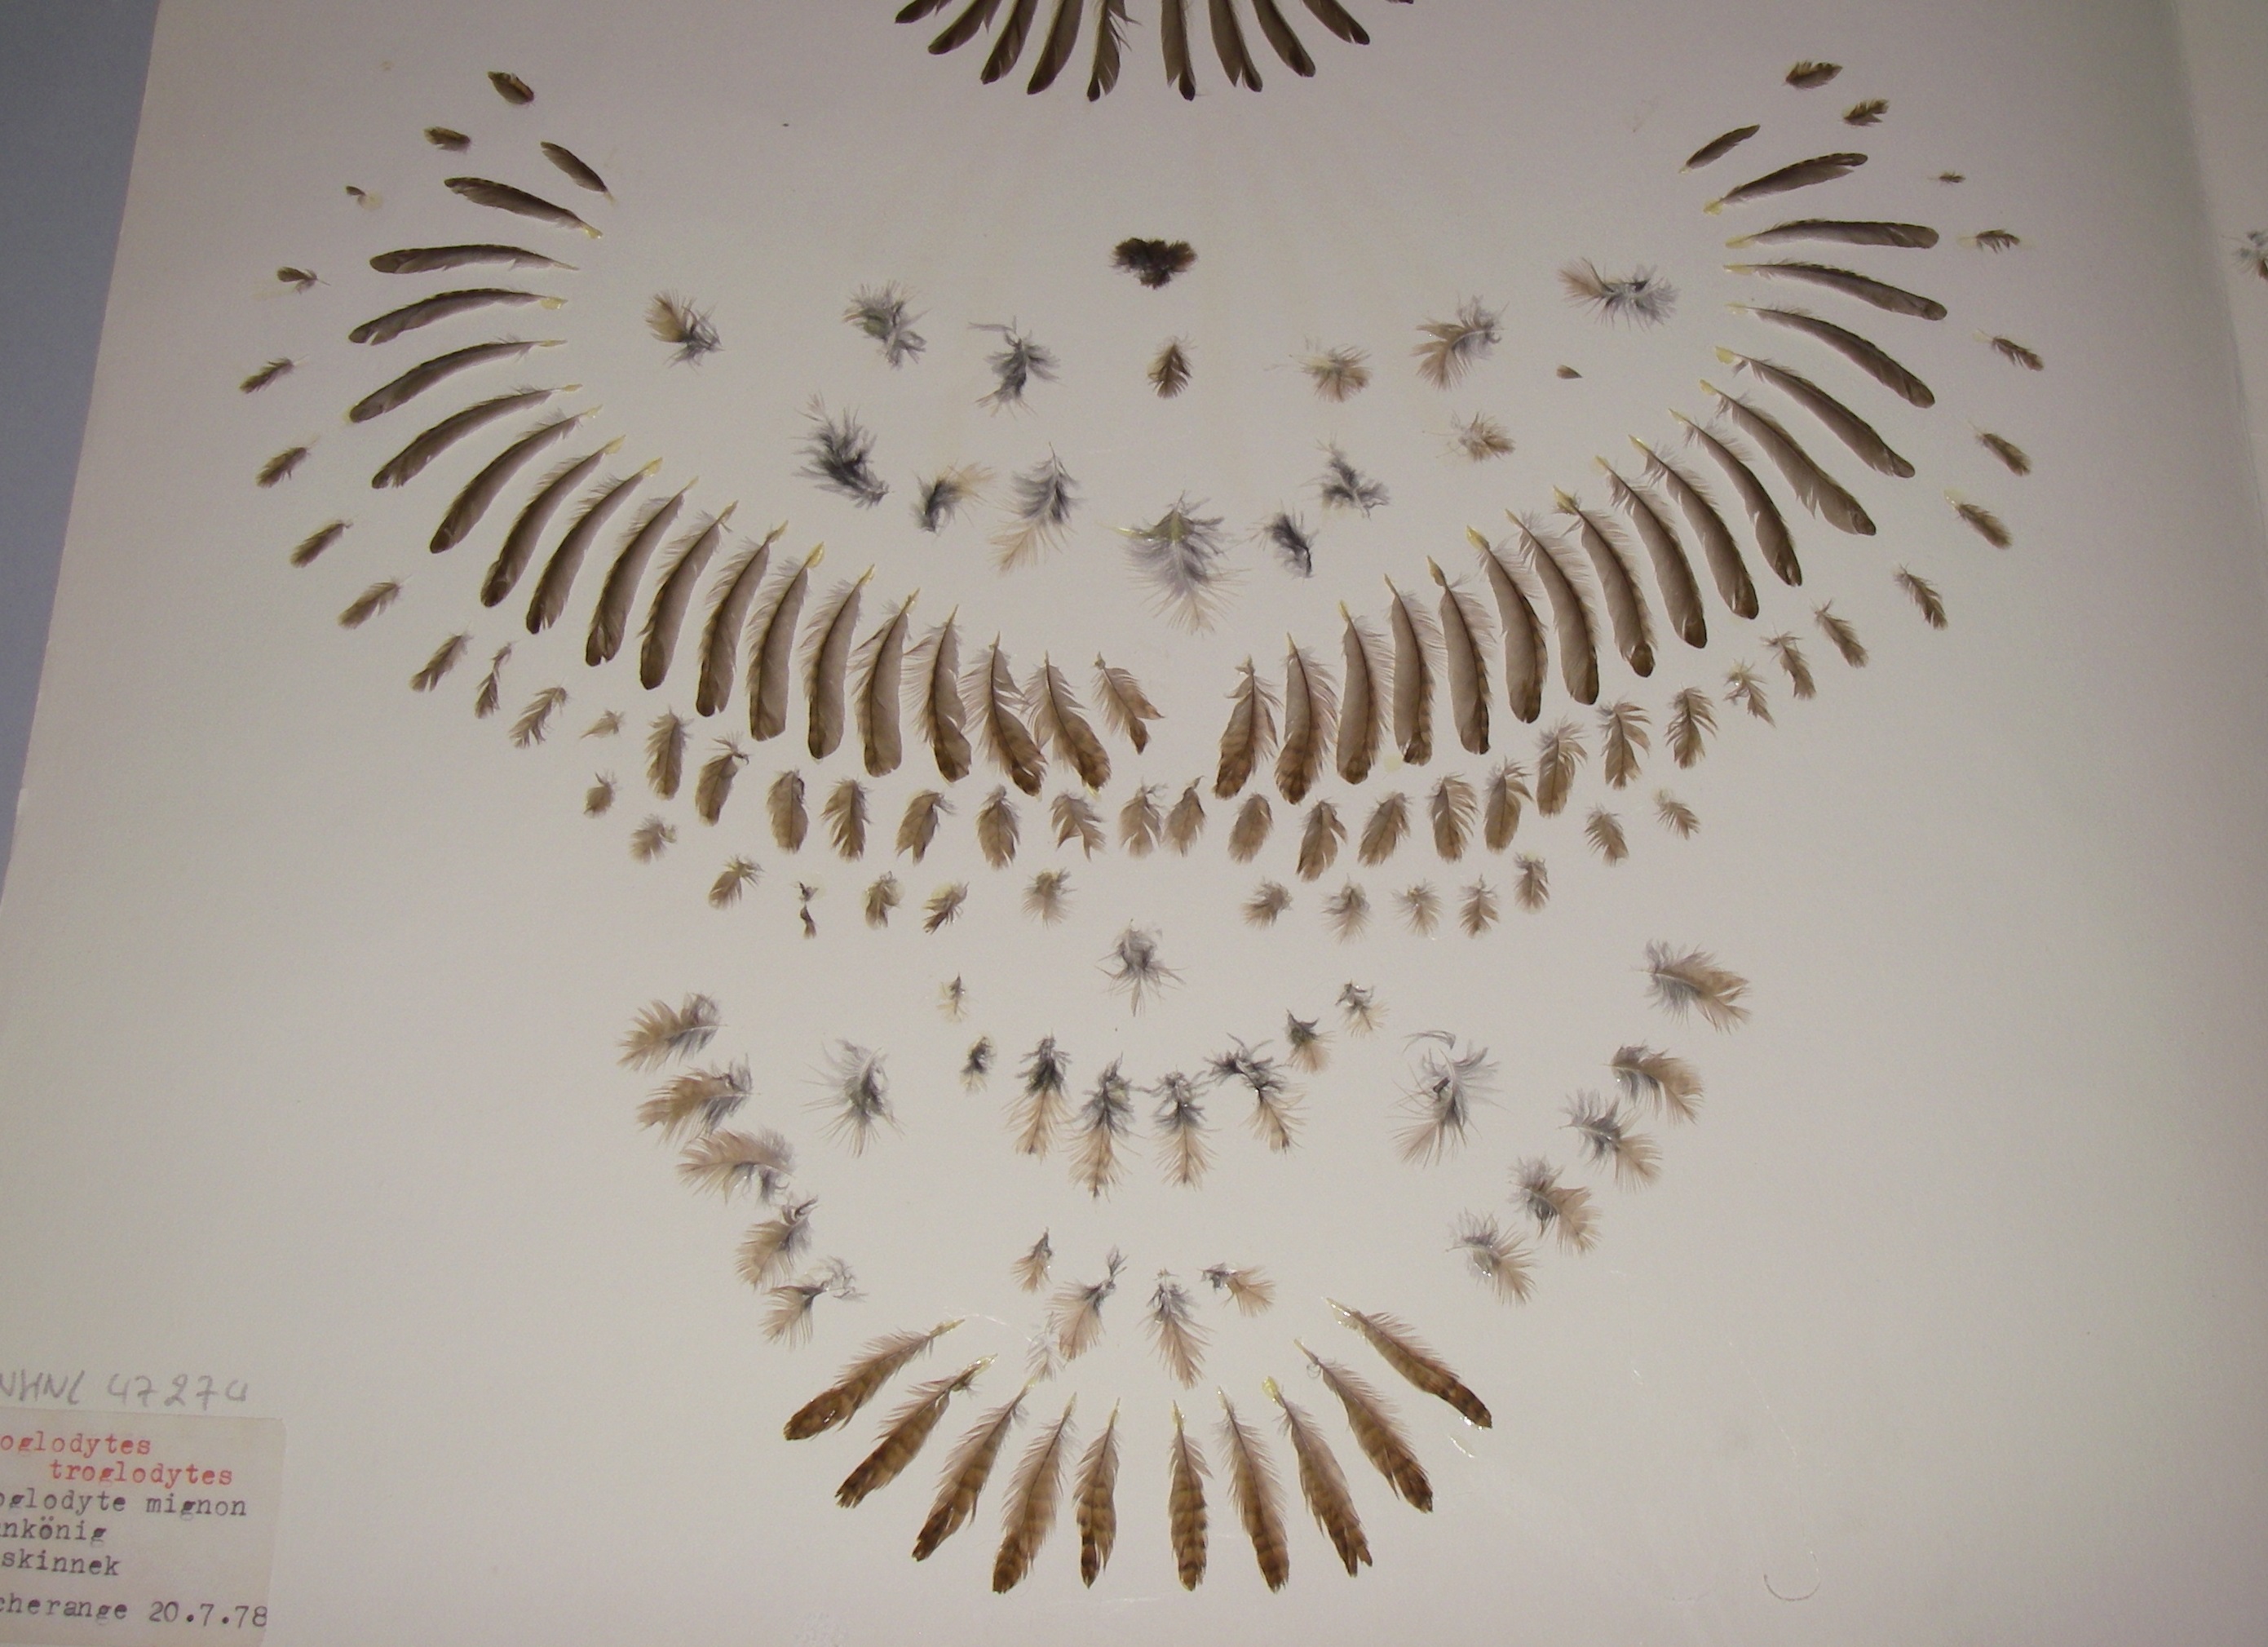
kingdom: Animalia
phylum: Chordata
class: Aves
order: Passeriformes
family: Troglodytidae
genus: Troglodytes
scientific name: Troglodytes troglodytes
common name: Eurasian wren
